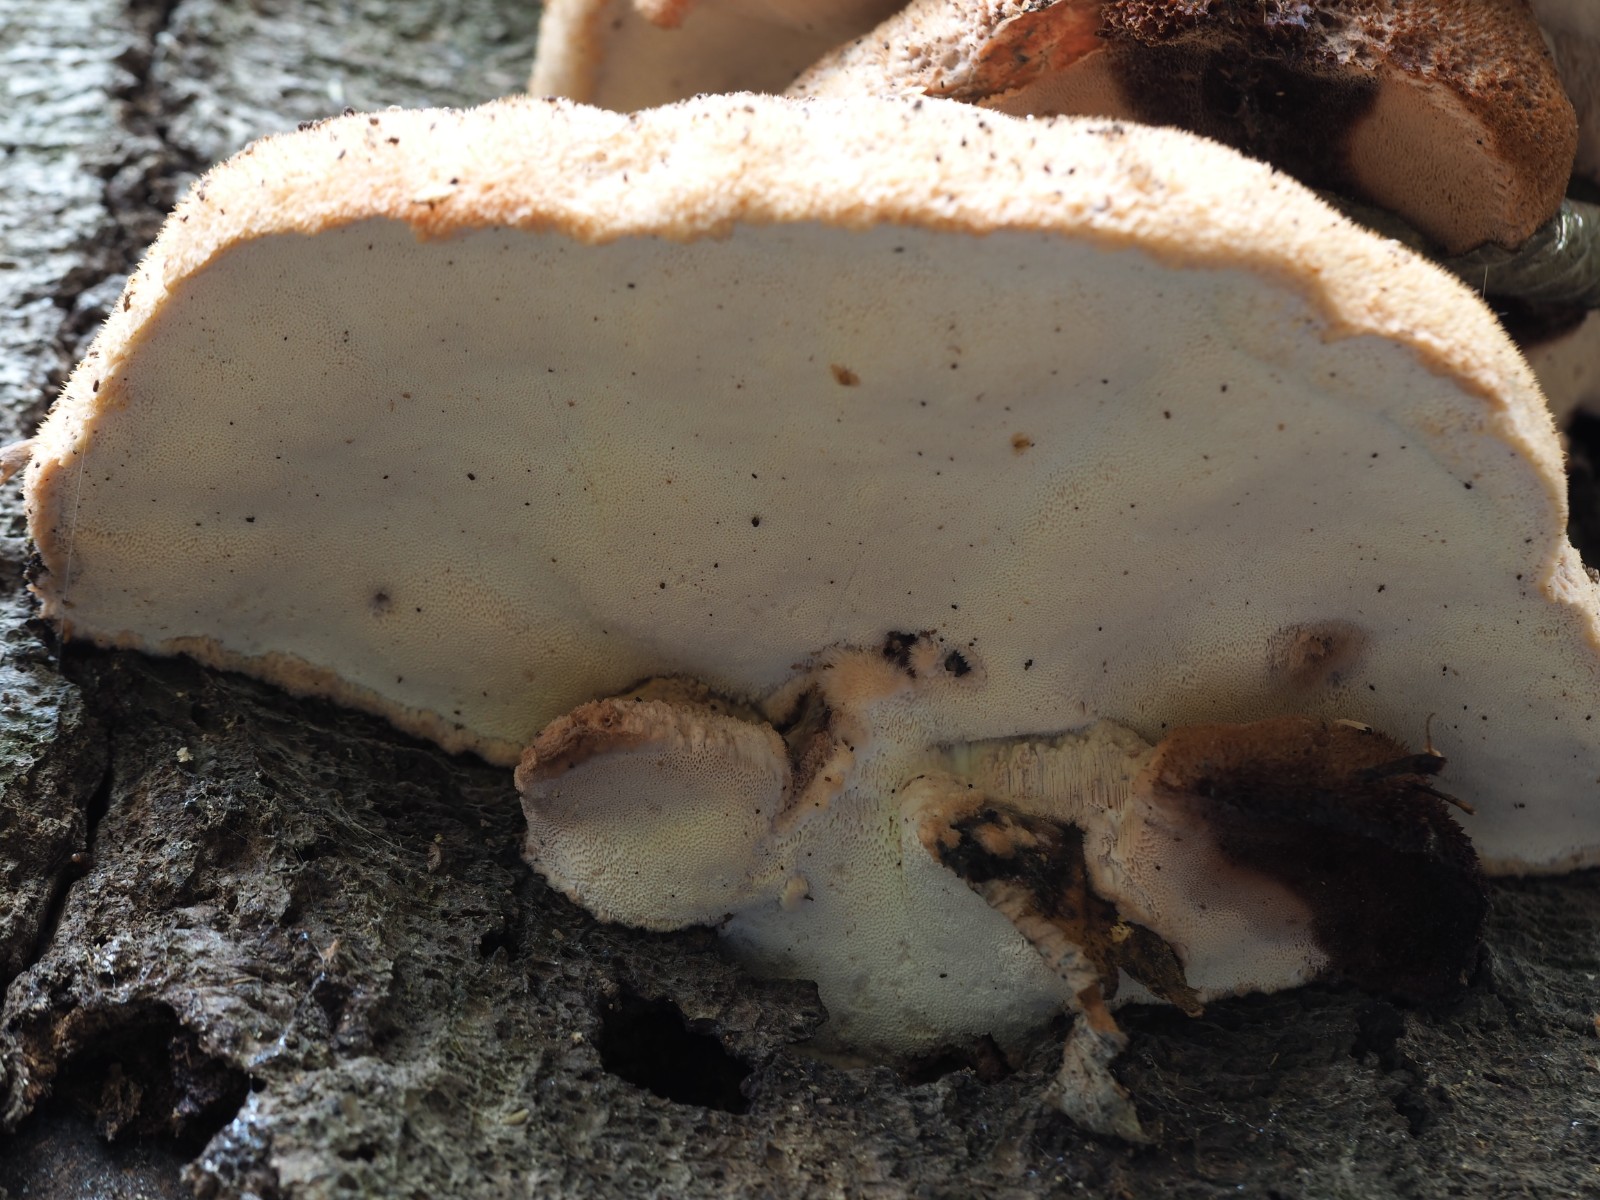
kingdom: Fungi
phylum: Basidiomycota
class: Agaricomycetes
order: Polyporales
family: Meruliaceae
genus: Pappia
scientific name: Pappia fissilis
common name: rosa fedtporesvamp
